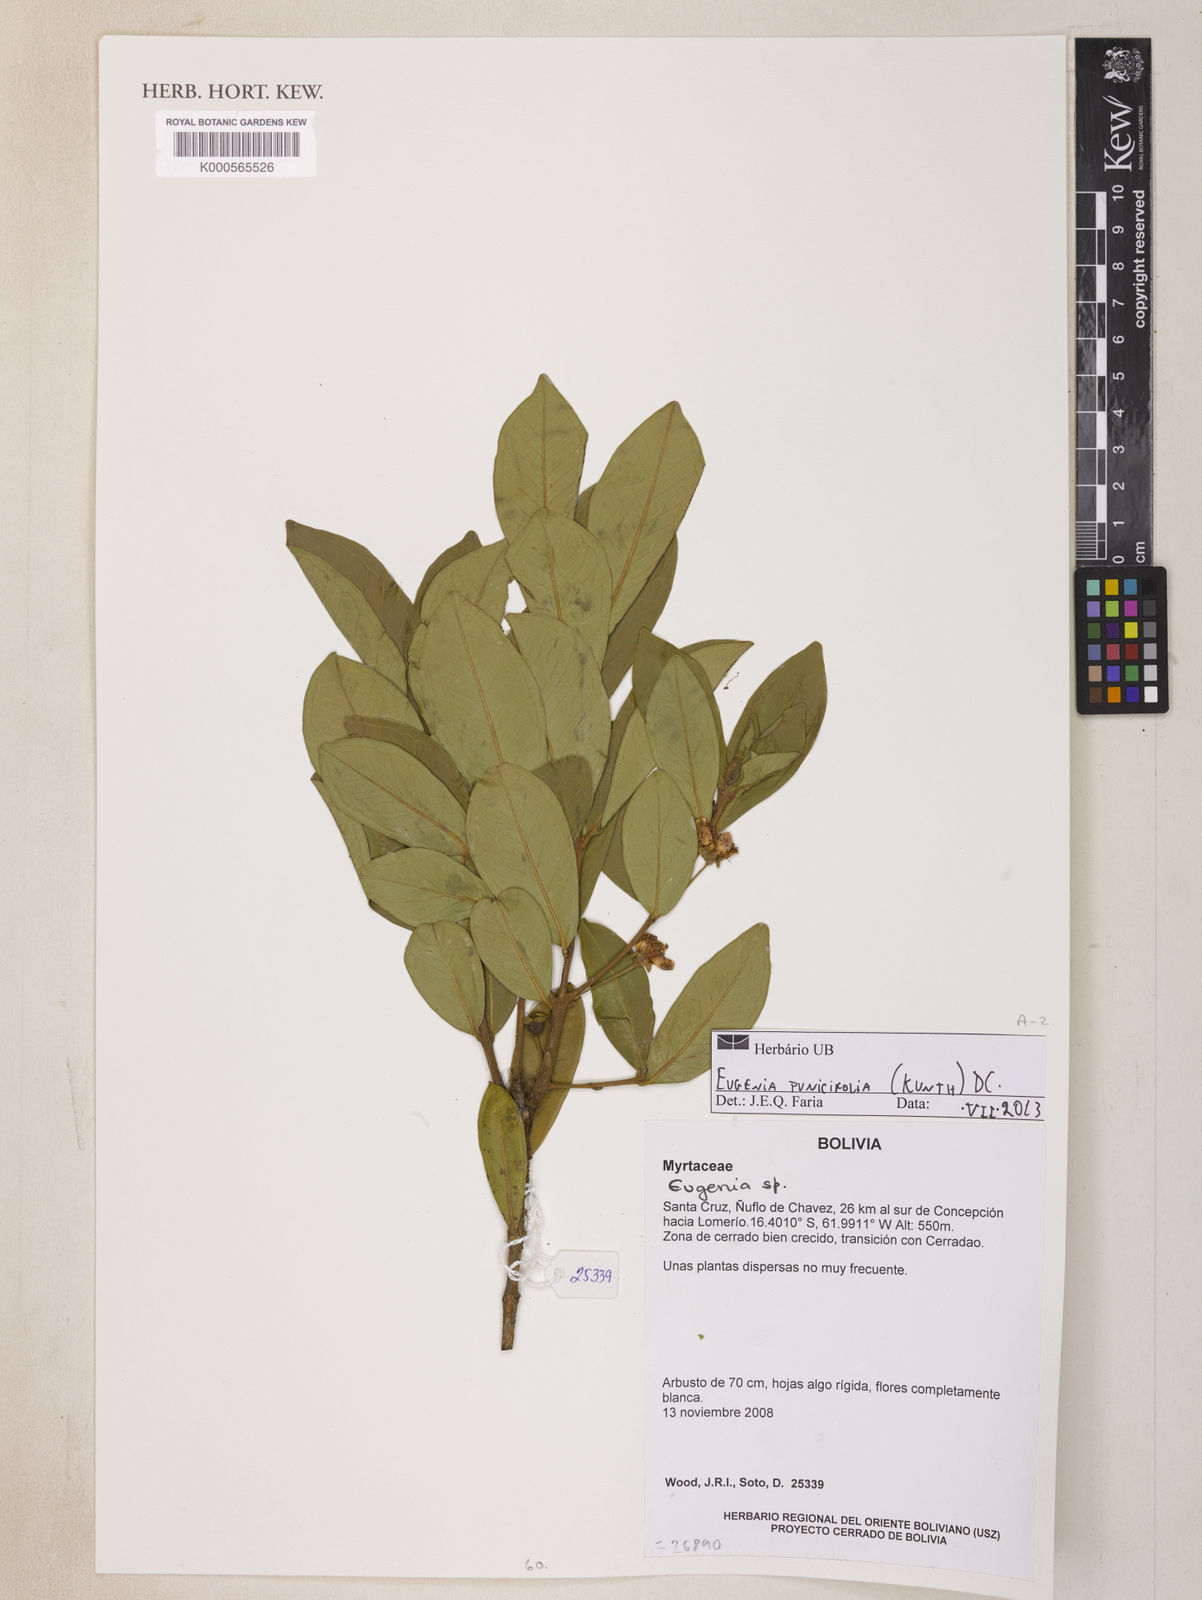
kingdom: Plantae
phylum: Tracheophyta
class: Magnoliopsida
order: Myrtales
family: Myrtaceae
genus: Eugenia
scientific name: Eugenia punicifolia
